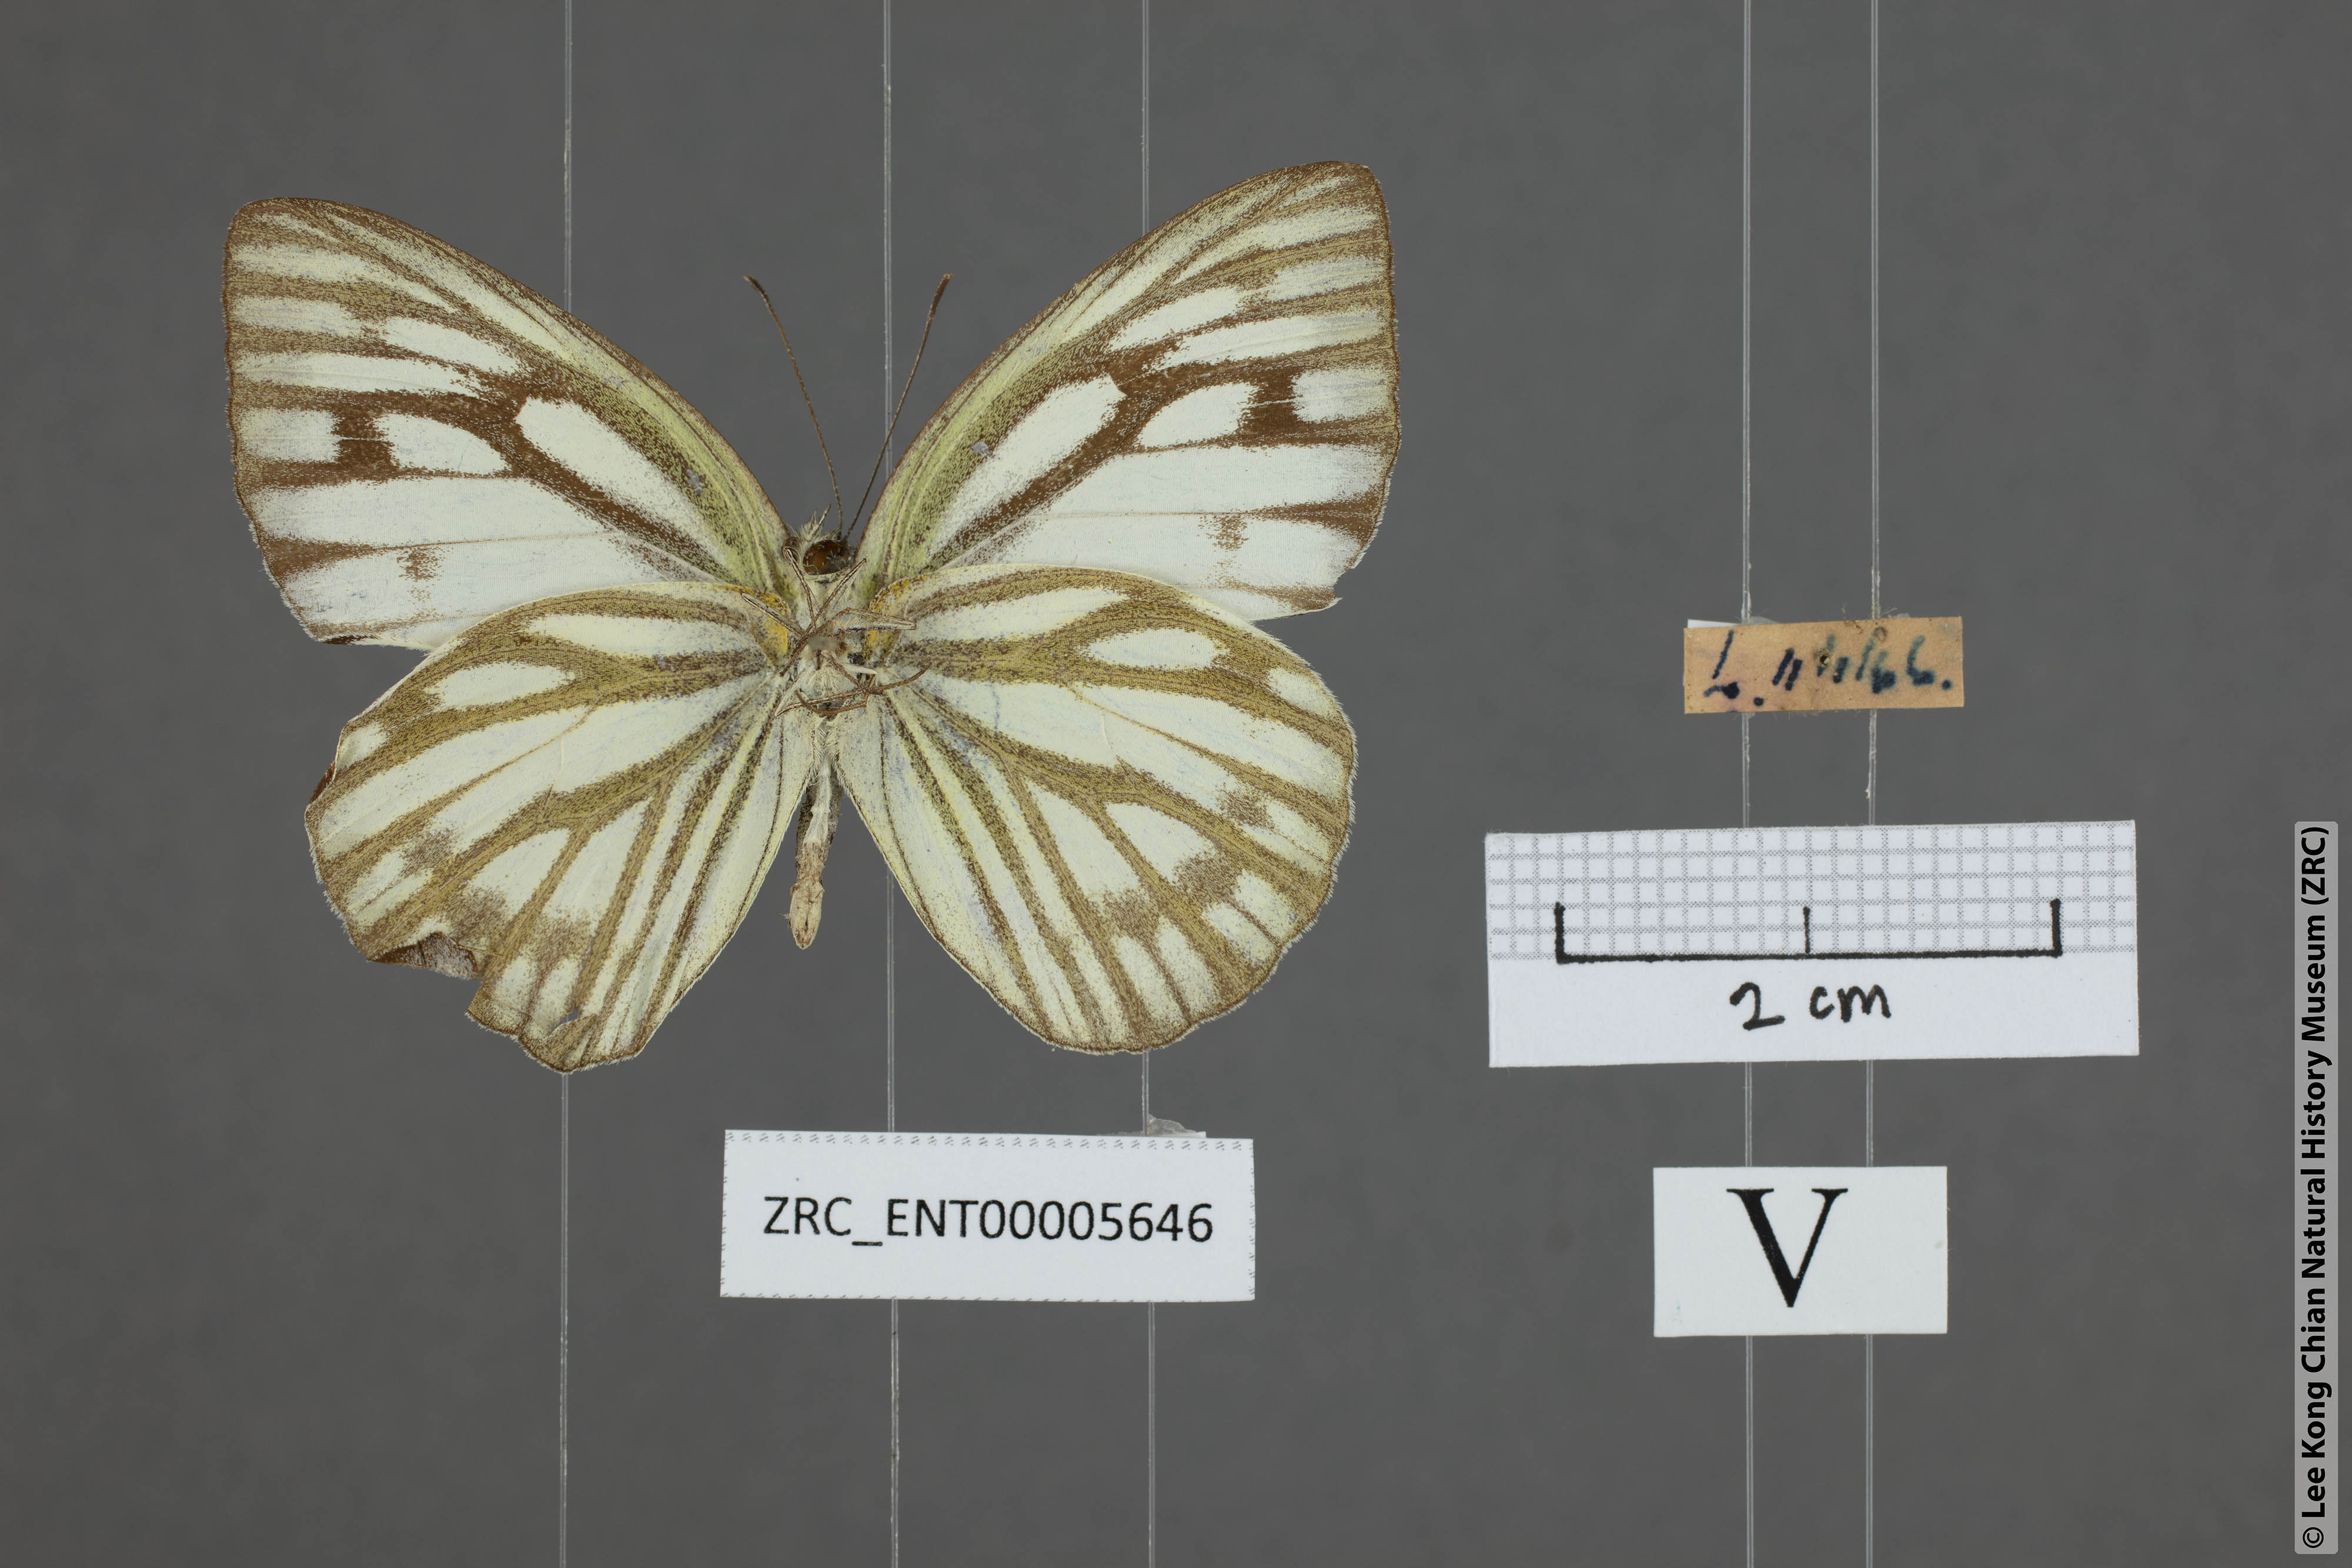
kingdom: Animalia
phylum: Arthropoda
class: Insecta
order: Lepidoptera
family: Pieridae
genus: Cepora
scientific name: Cepora nerissa
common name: Common gull
